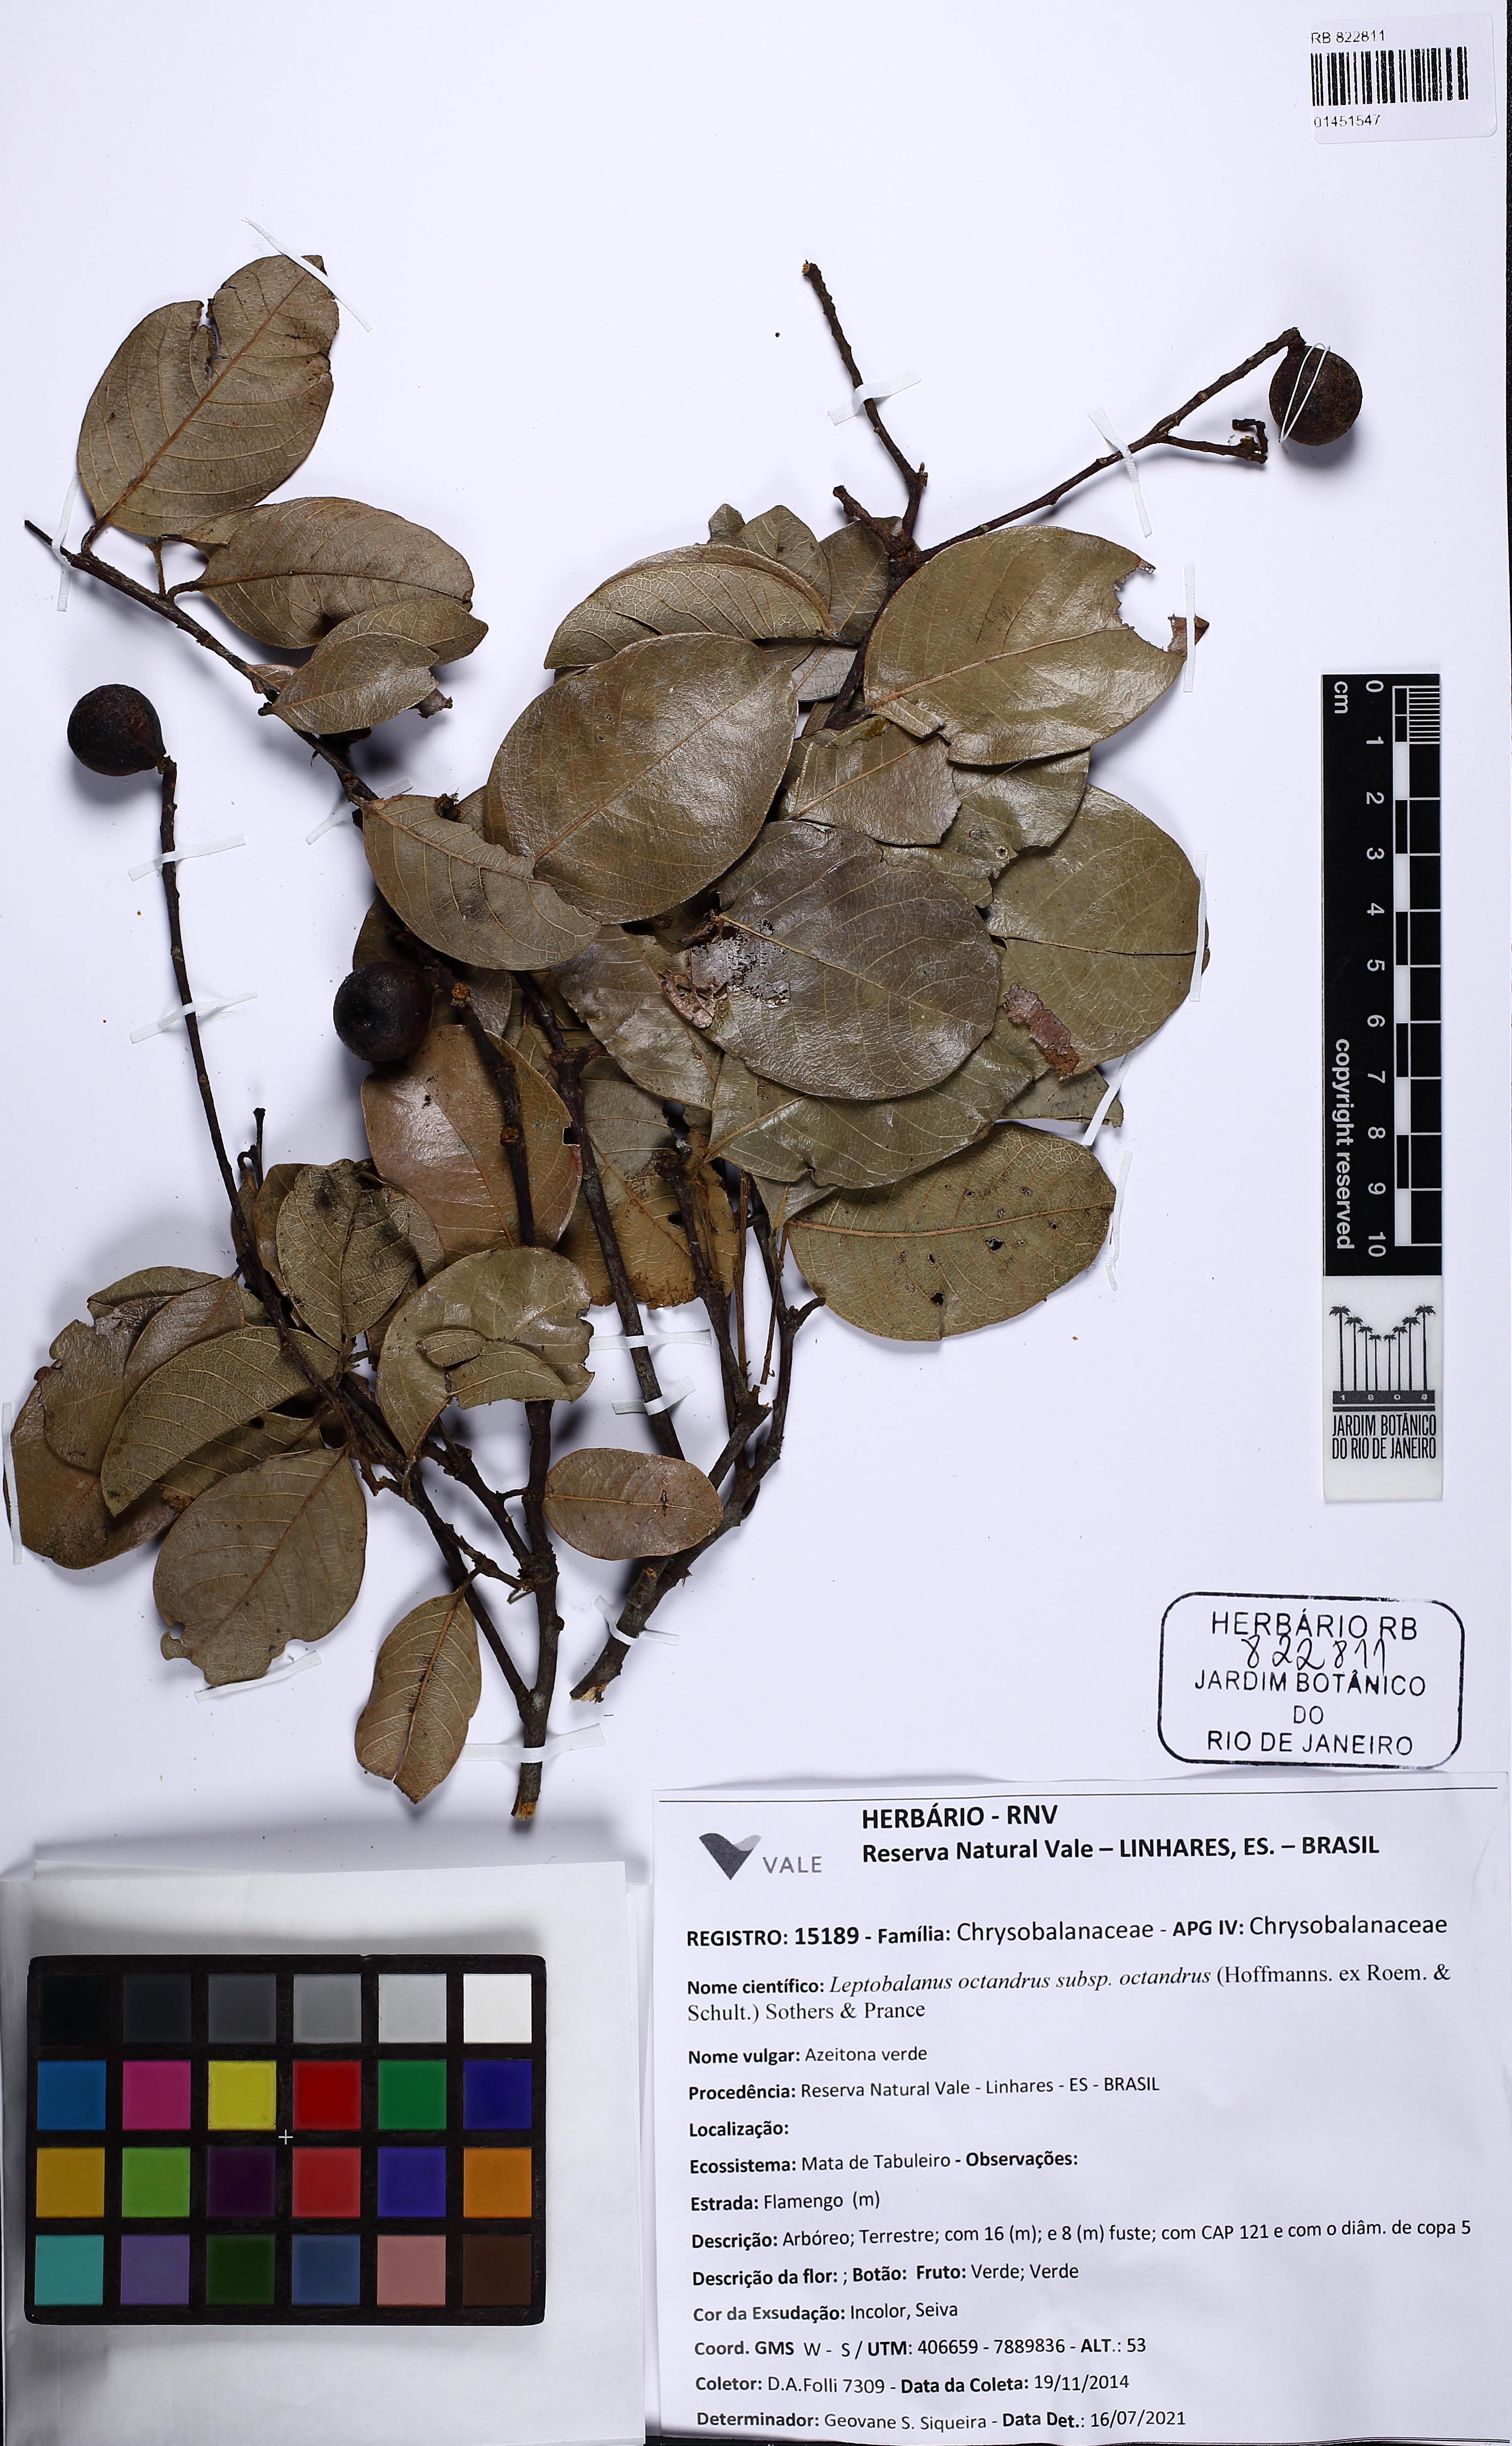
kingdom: Plantae
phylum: Tracheophyta
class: Magnoliopsida
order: Malpighiales
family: Chrysobalanaceae
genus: Leptobalanus
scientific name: Leptobalanus octandrus
